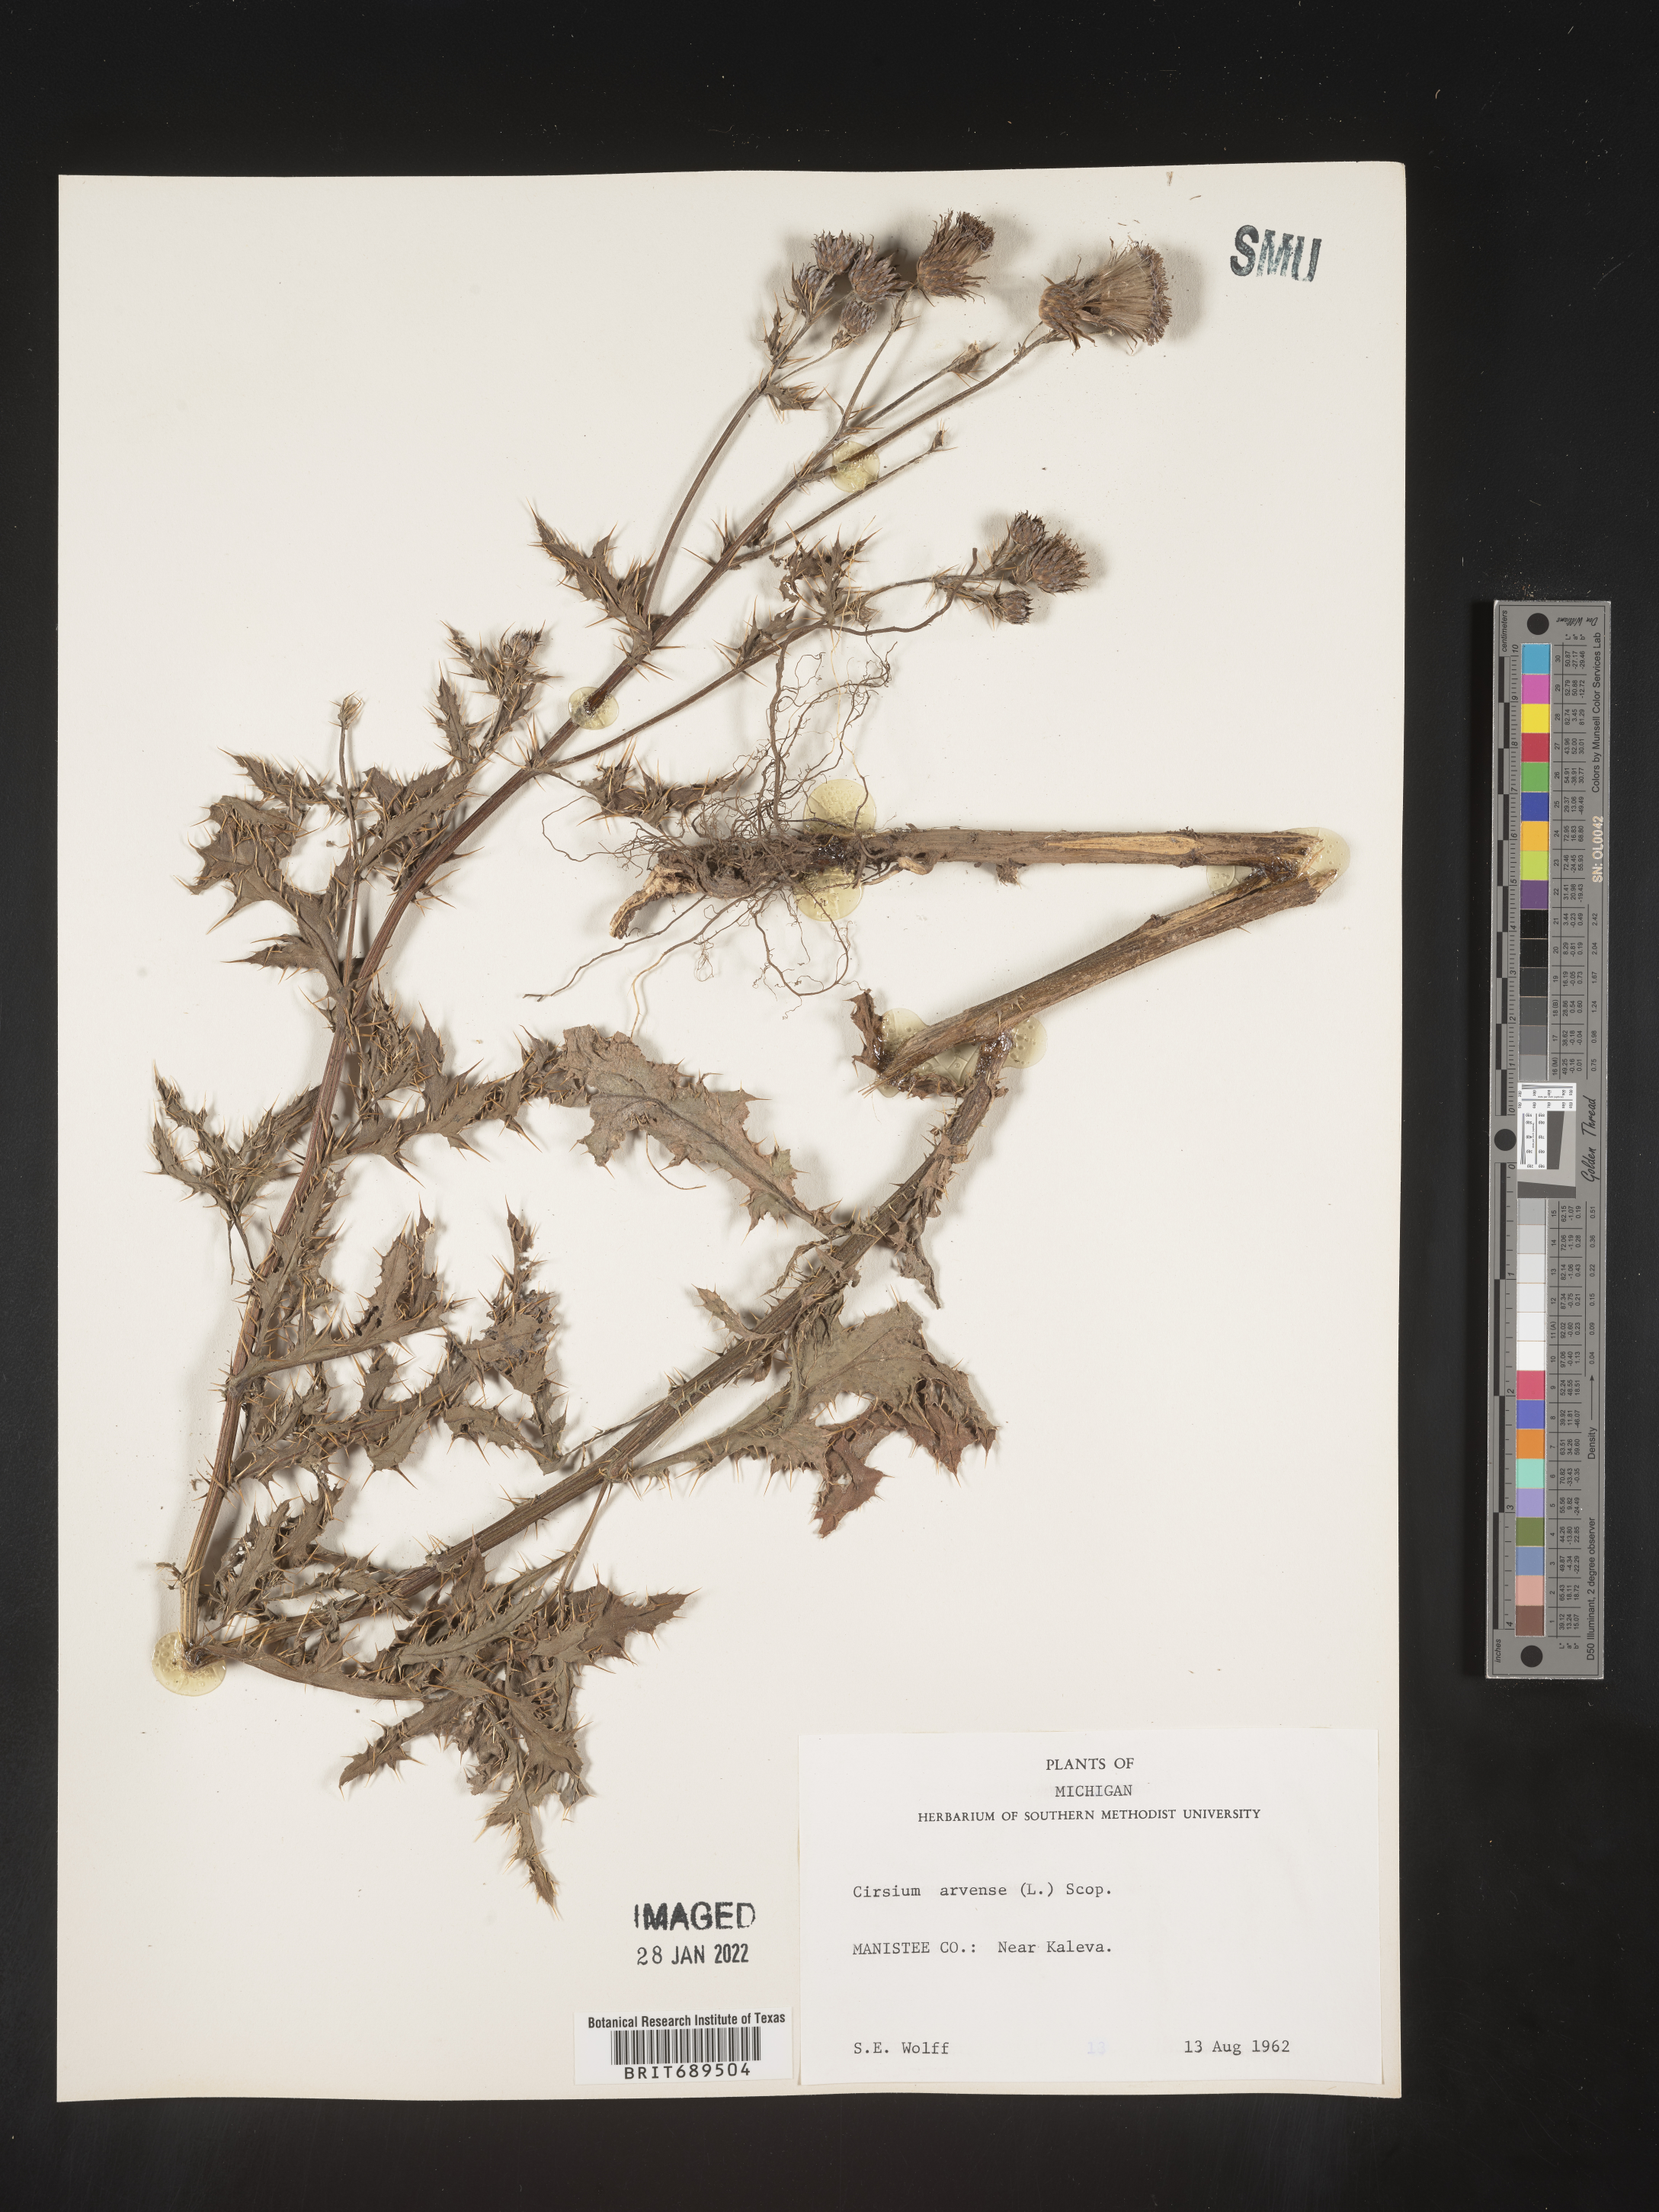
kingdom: Plantae
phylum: Tracheophyta
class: Magnoliopsida
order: Asterales
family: Asteraceae
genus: Cirsium
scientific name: Cirsium arvense
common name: Creeping thistle
